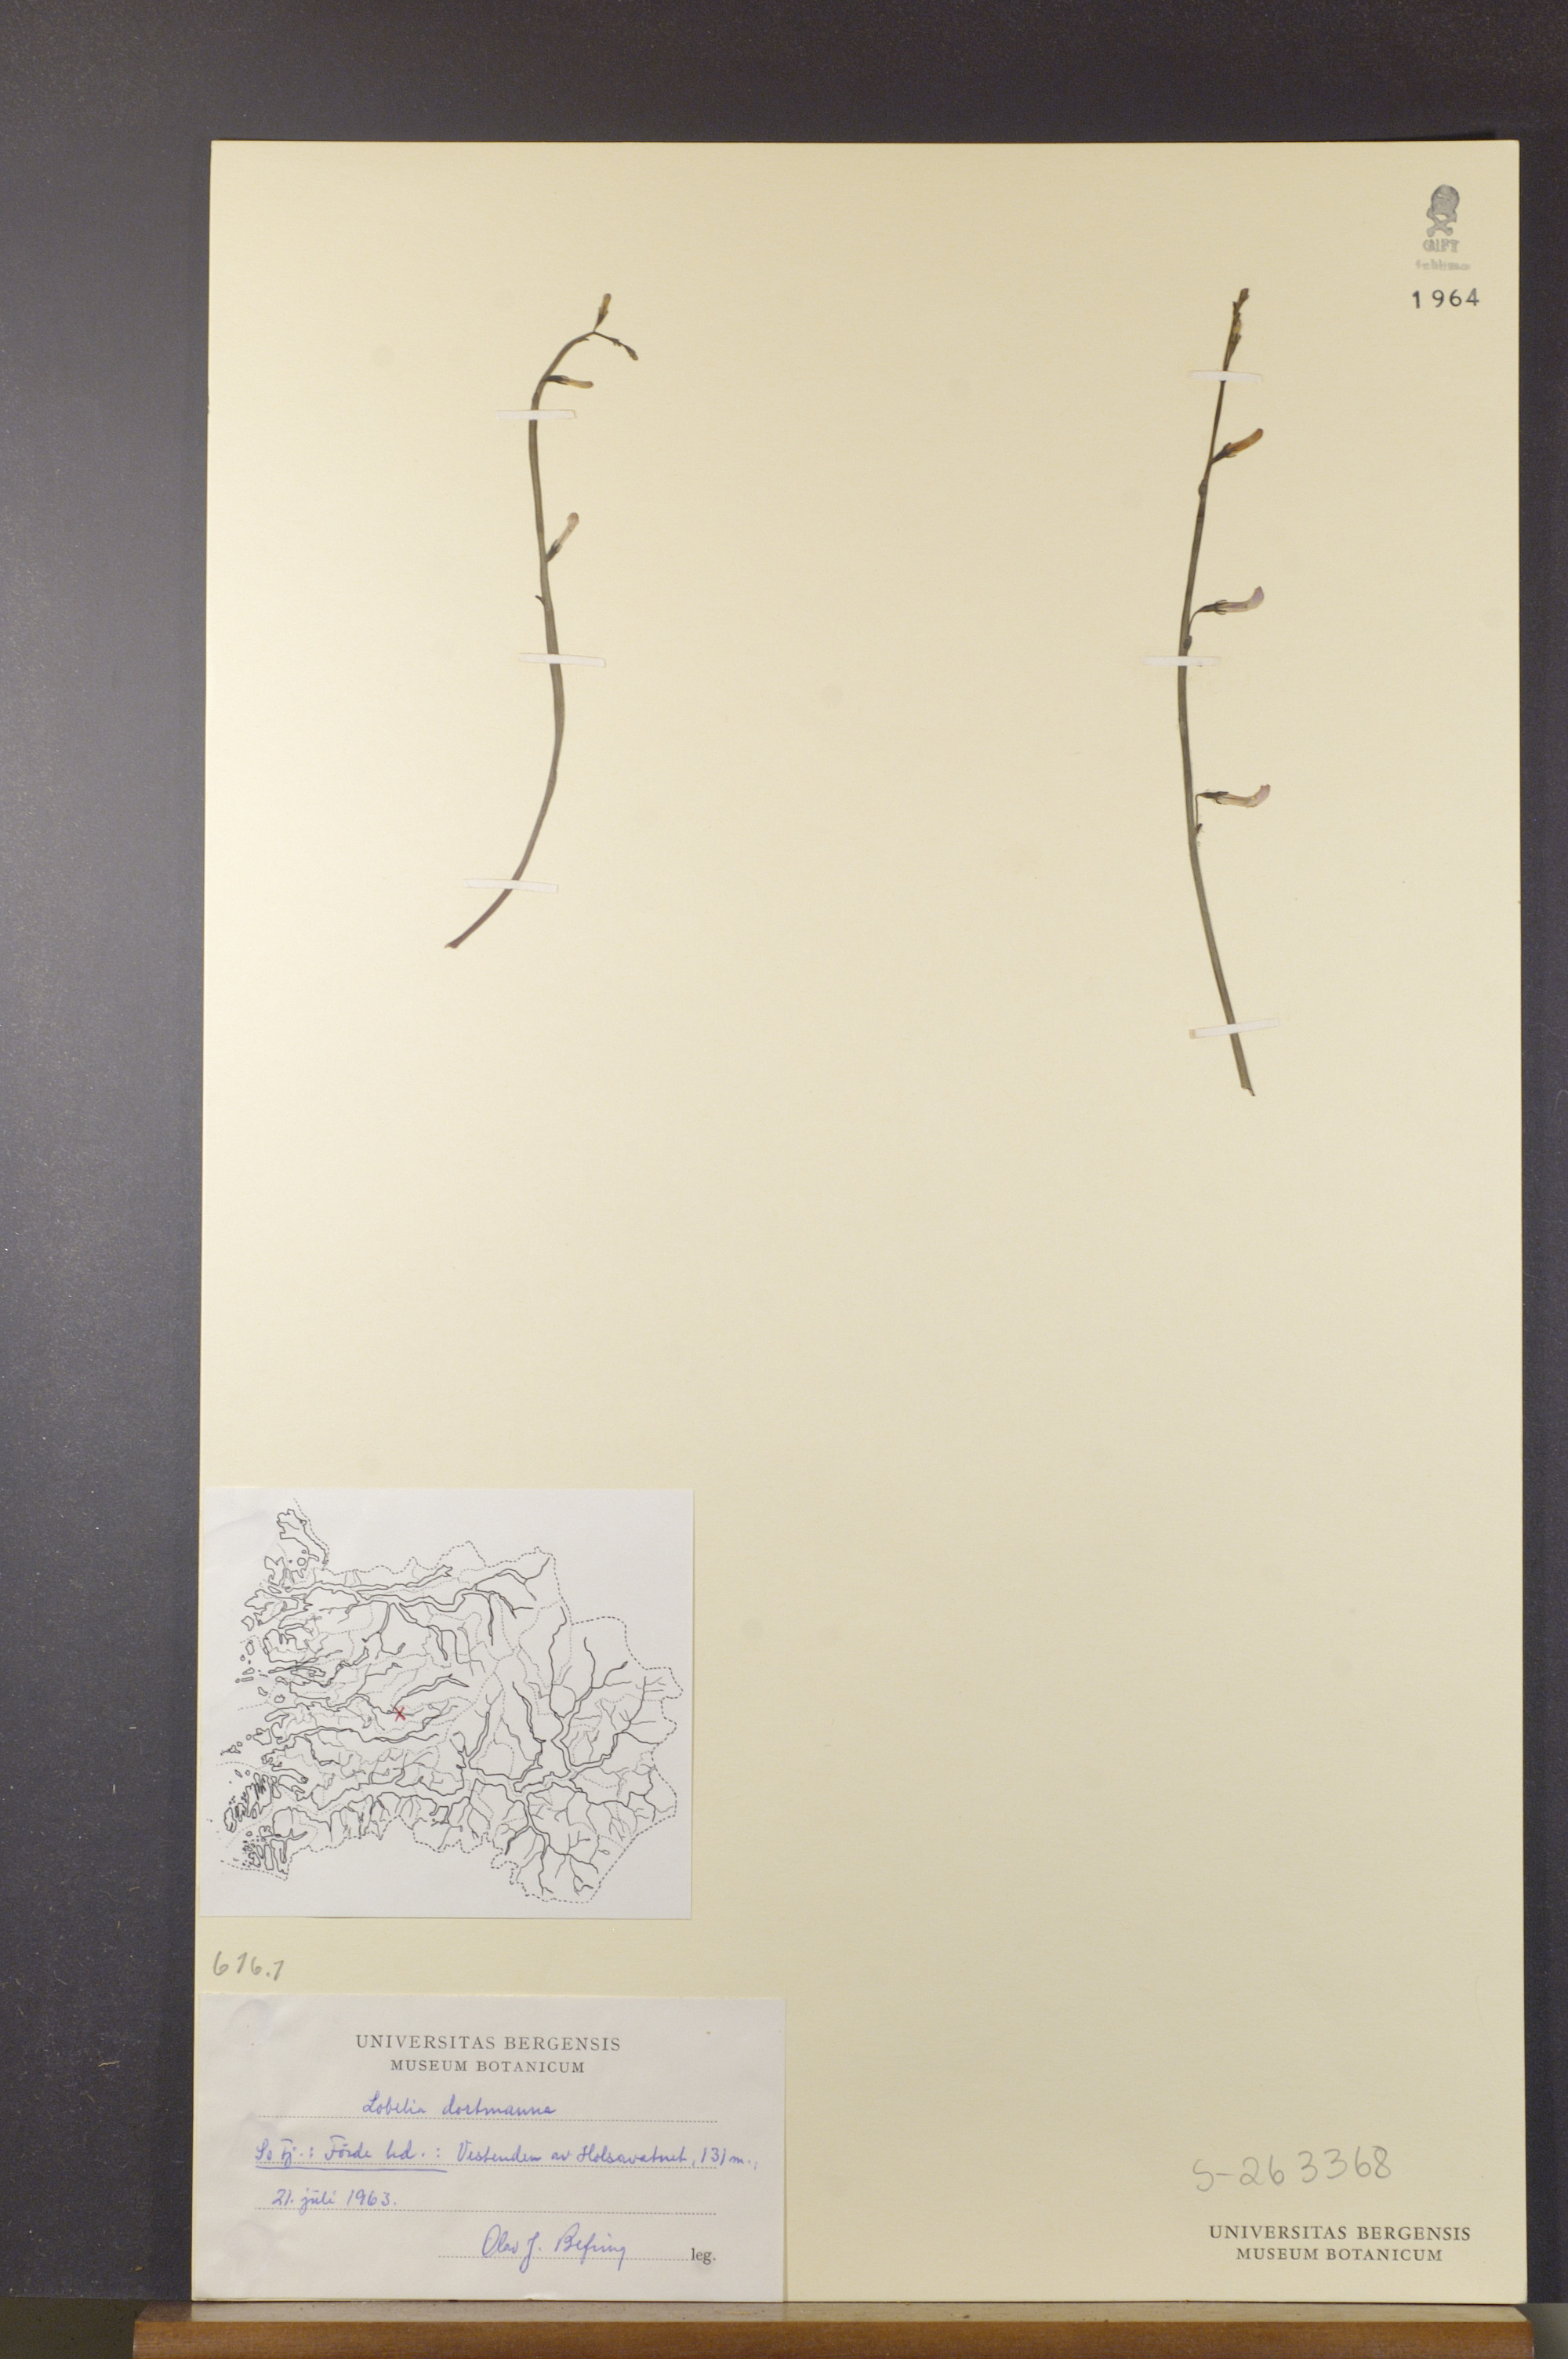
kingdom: Plantae
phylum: Tracheophyta
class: Magnoliopsida
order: Asterales
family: Campanulaceae
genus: Lobelia
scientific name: Lobelia dortmanna
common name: Water lobelia
